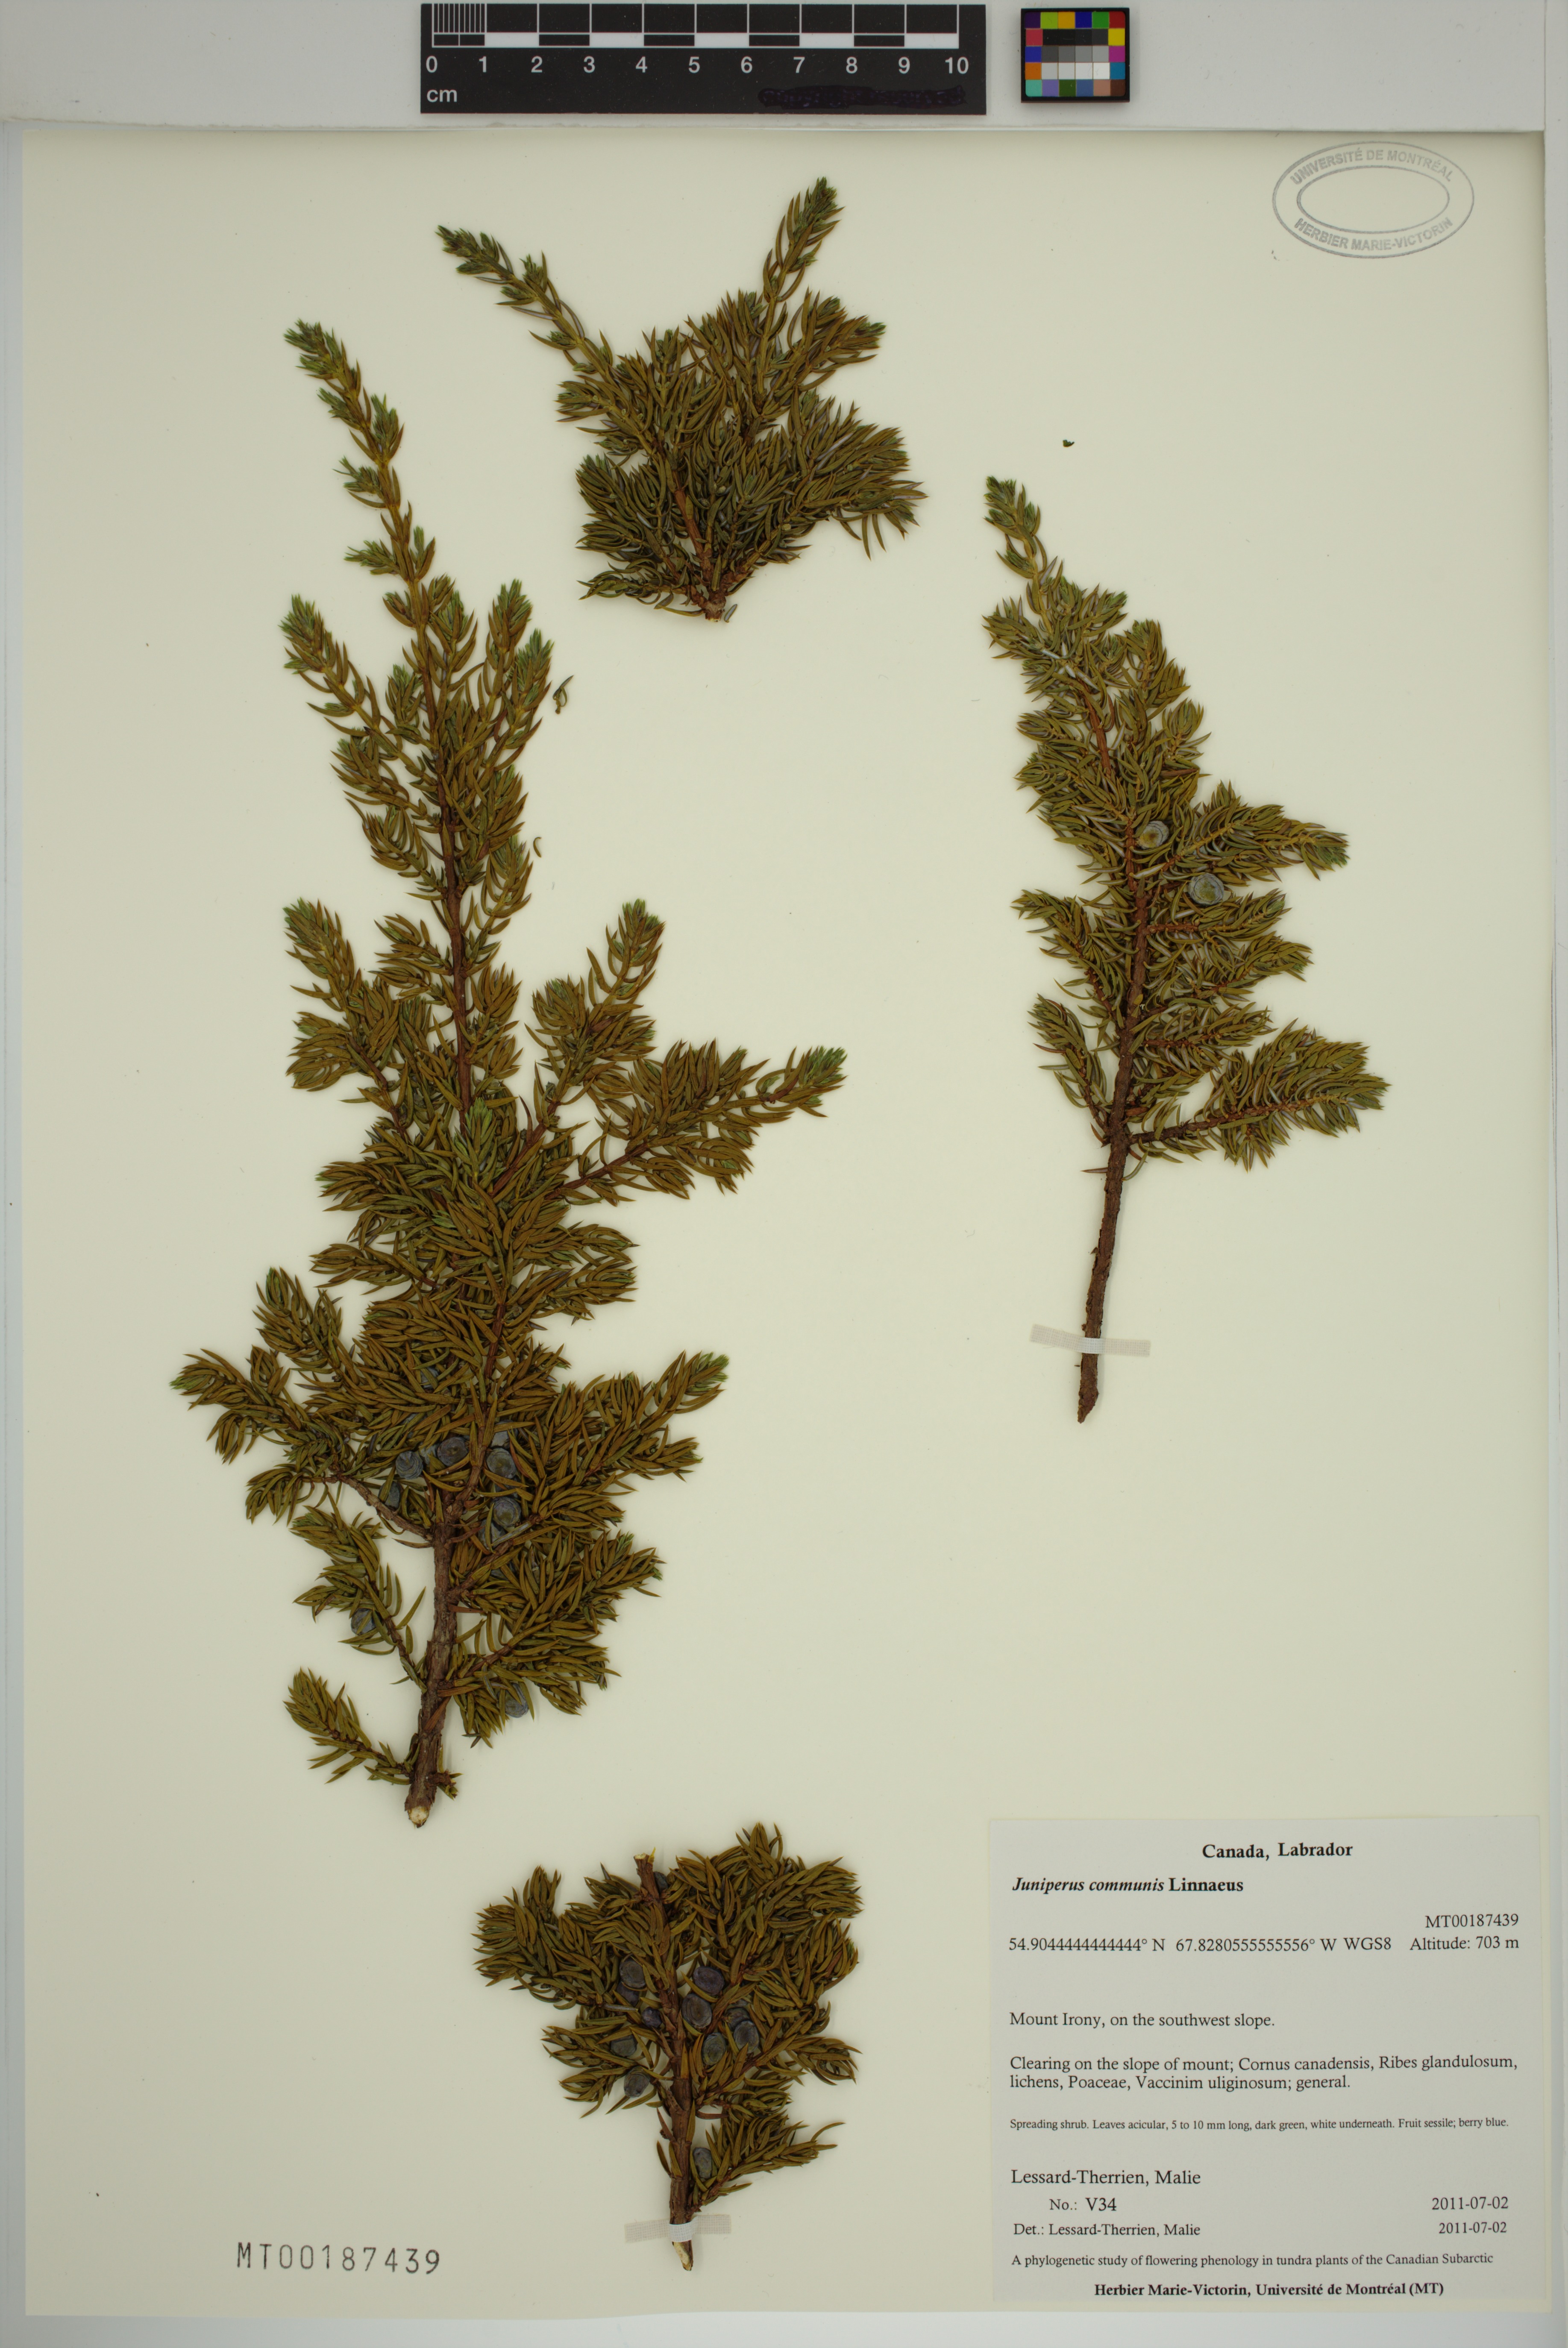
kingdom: Plantae
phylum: Tracheophyta
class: Pinopsida
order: Pinales
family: Cupressaceae
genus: Juniperus
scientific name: Juniperus communis
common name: Common juniper
